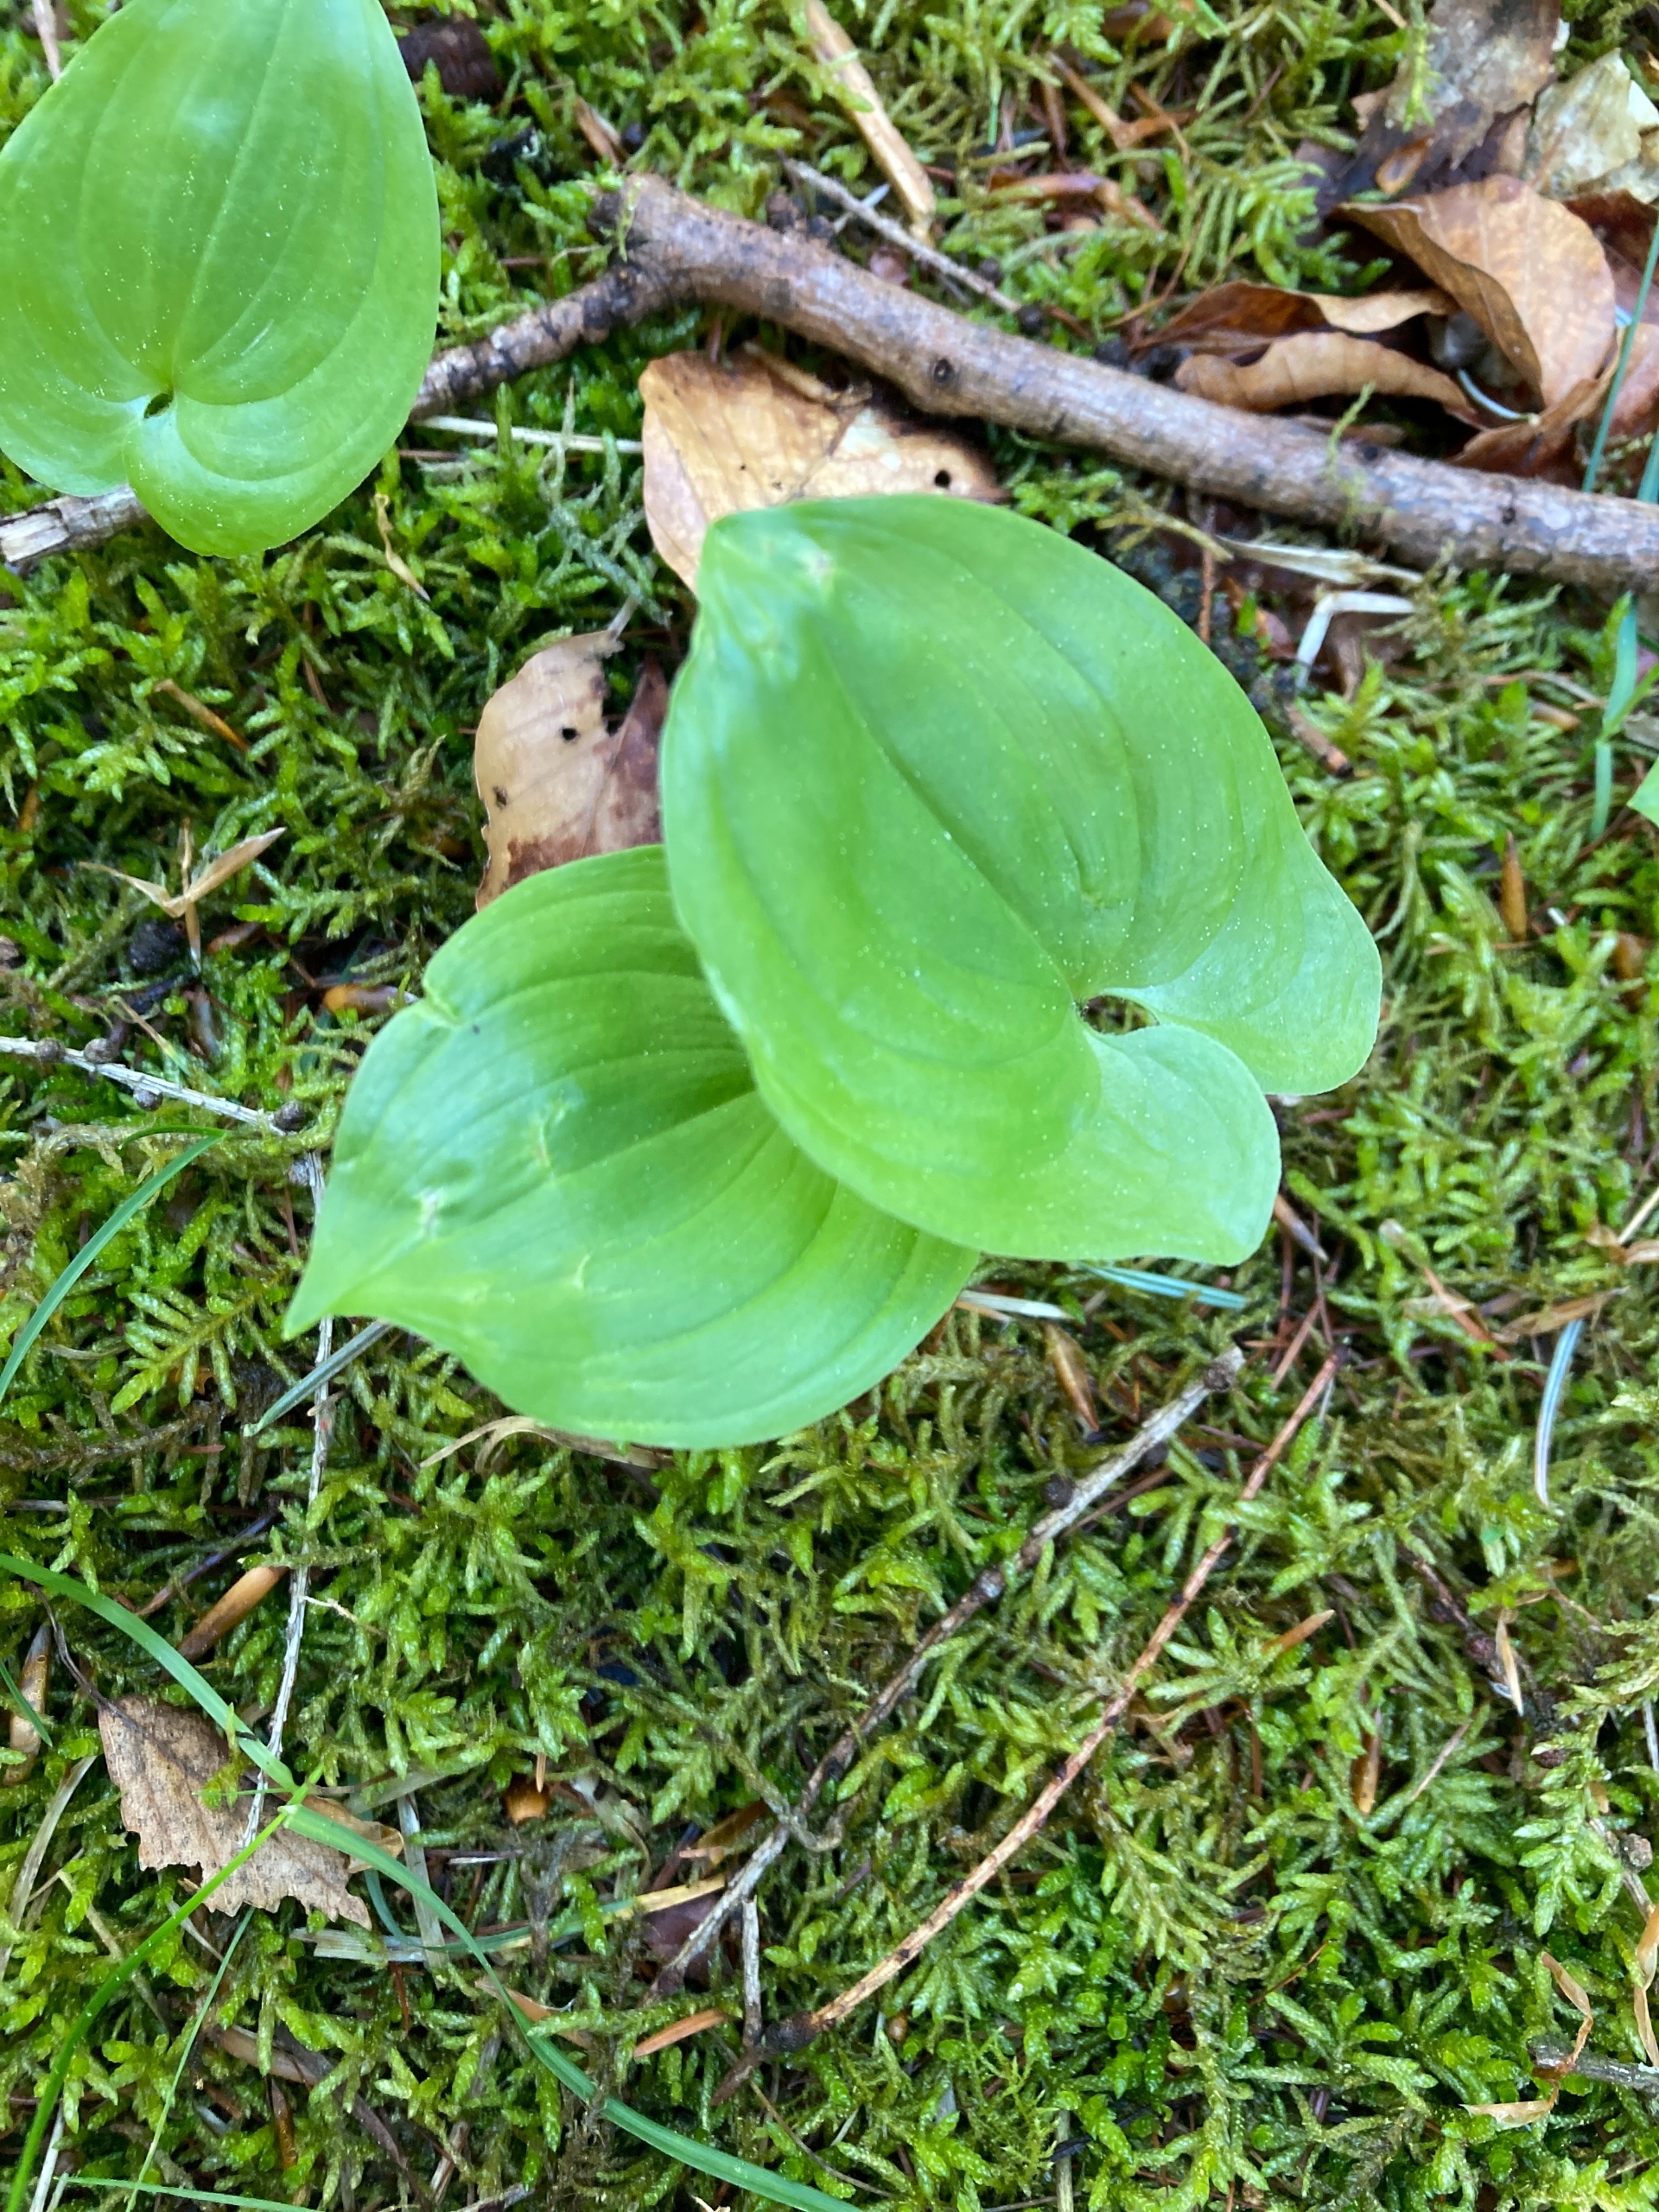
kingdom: Plantae
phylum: Tracheophyta
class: Liliopsida
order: Asparagales
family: Asparagaceae
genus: Maianthemum
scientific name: Maianthemum bifolium
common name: Majblomst
